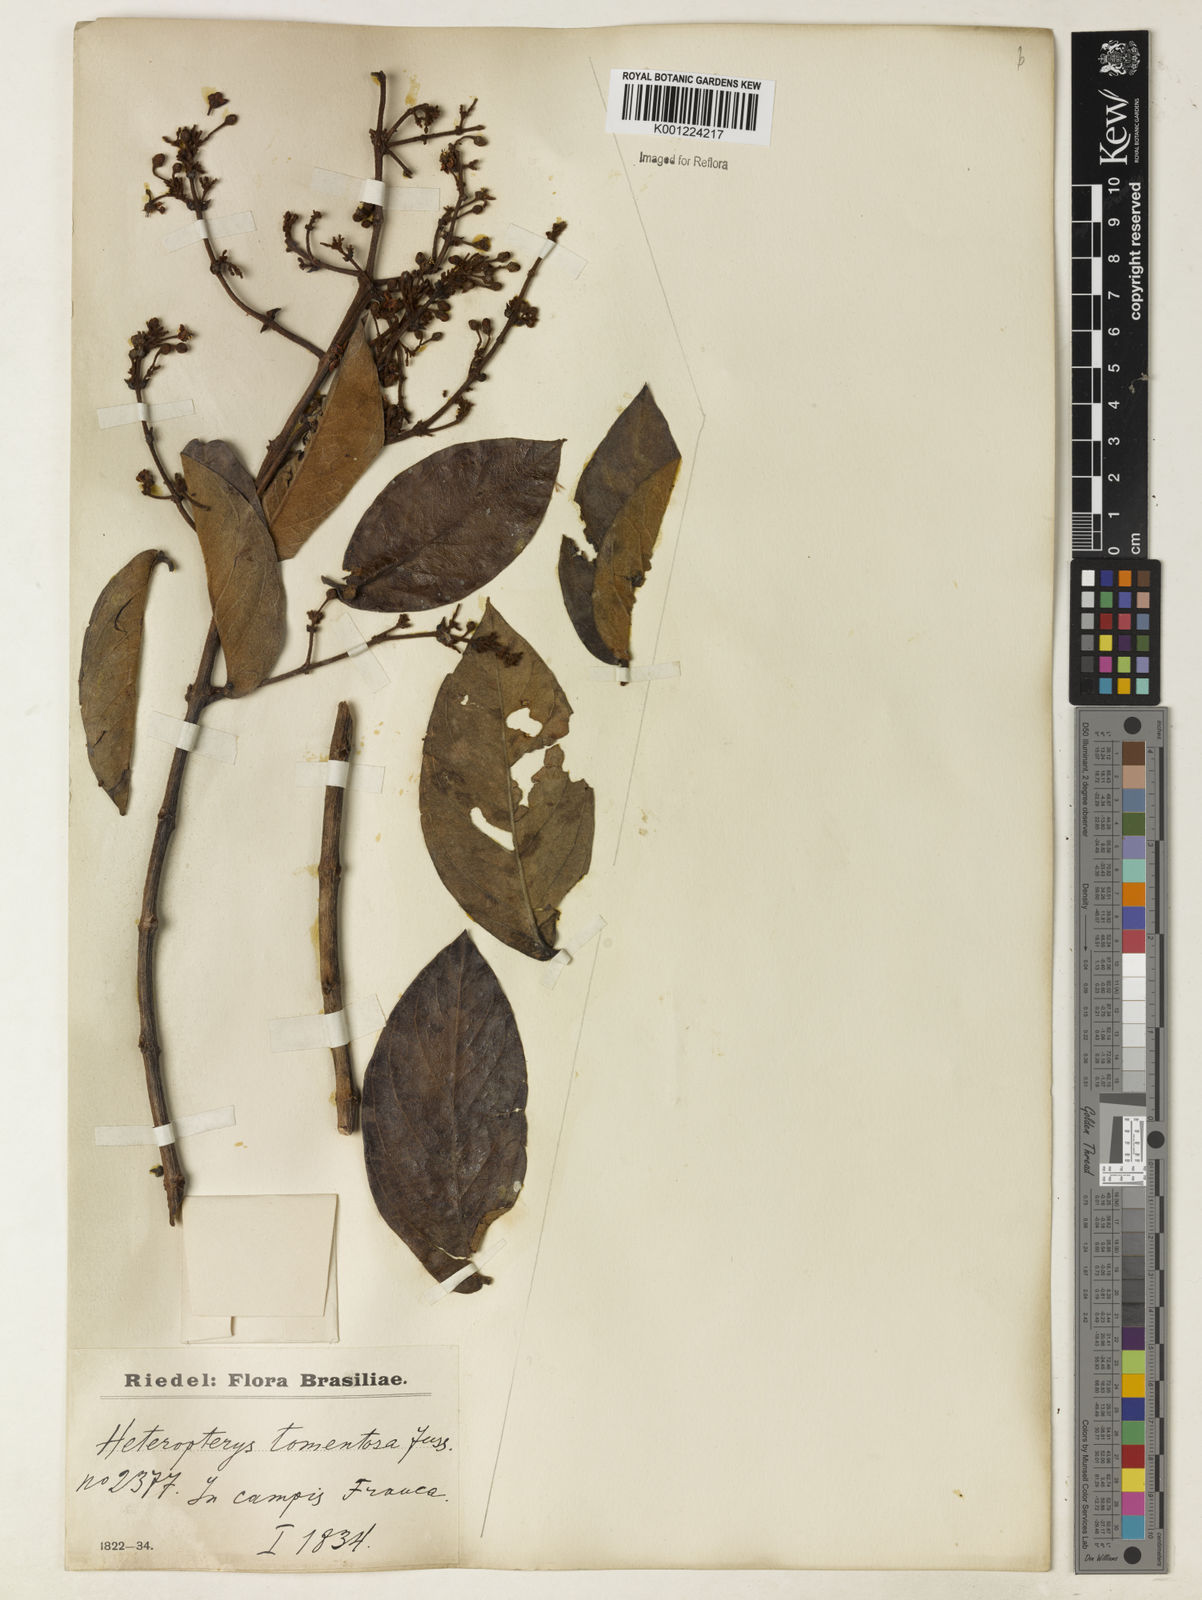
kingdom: Plantae
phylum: Tracheophyta
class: Magnoliopsida
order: Malpighiales
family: Malpighiaceae
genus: Heteropterys
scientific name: Heteropterys tomentosa
